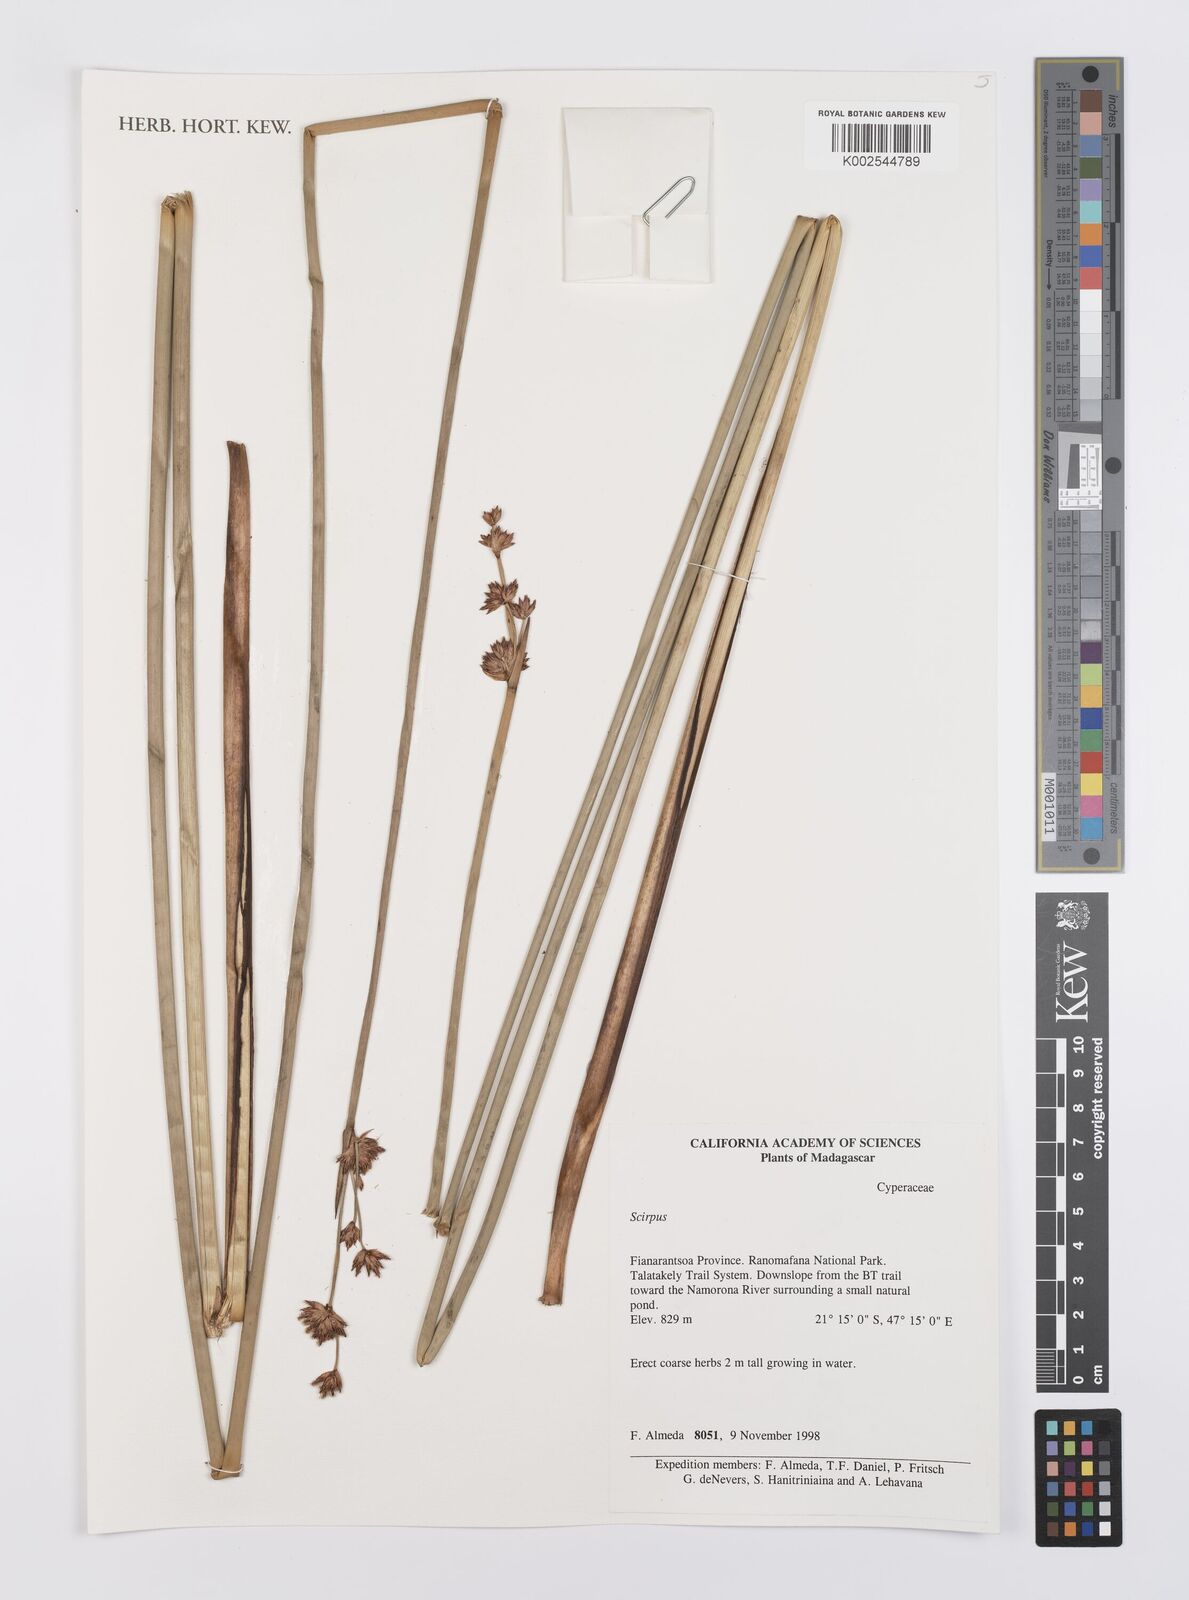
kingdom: Plantae
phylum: Tracheophyta
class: Liliopsida
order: Poales
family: Cyperaceae
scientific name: Cyperaceae
